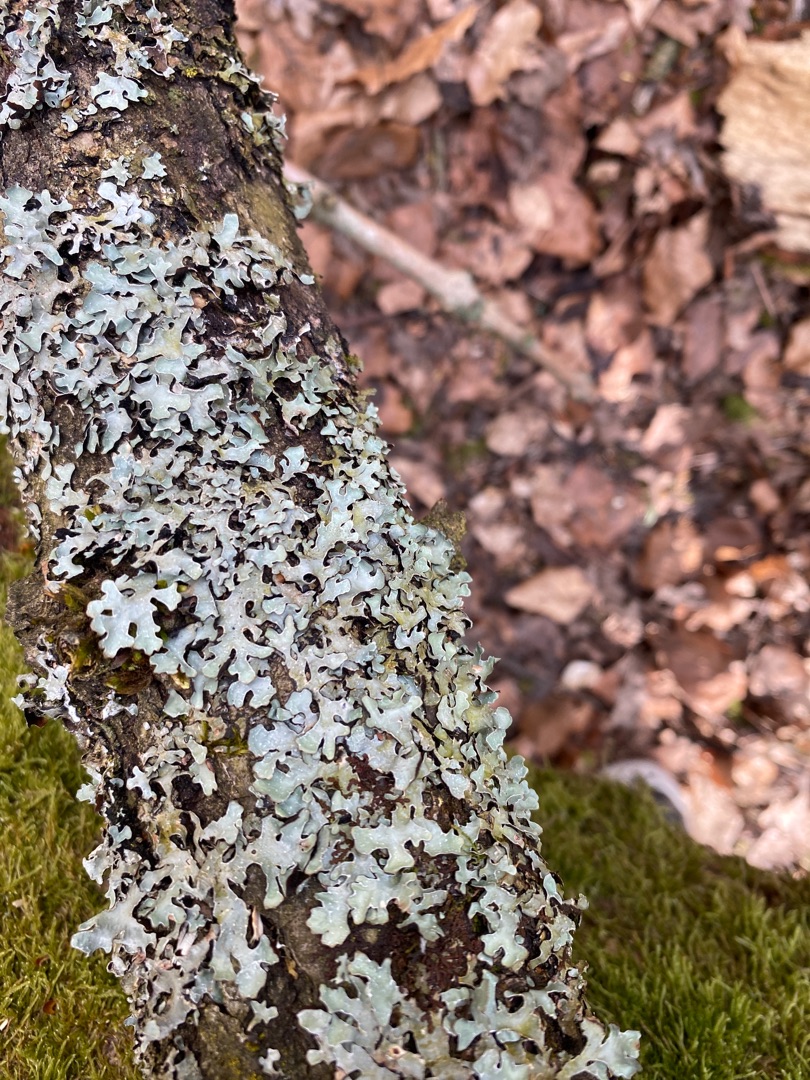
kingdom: Fungi
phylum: Ascomycota
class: Lecanoromycetes
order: Lecanorales
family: Parmeliaceae
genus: Parmelia
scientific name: Parmelia sulcata
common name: Rynket skållav
